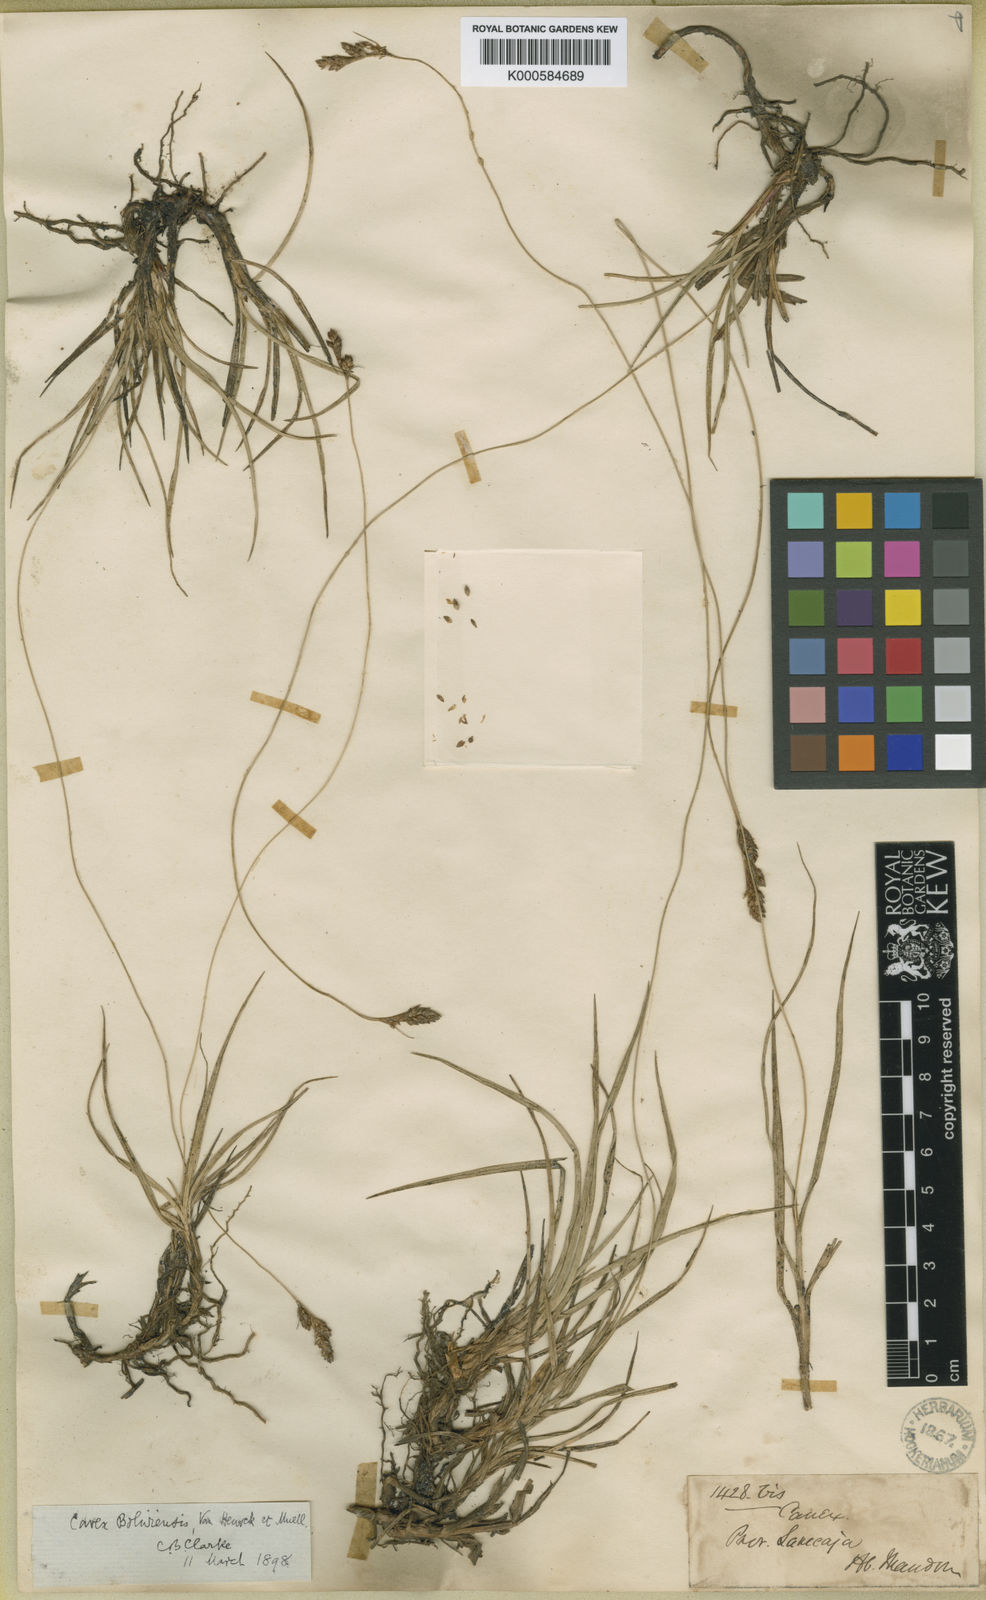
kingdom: Plantae
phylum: Tracheophyta
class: Liliopsida
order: Poales
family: Cyperaceae
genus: Carex
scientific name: Carex
